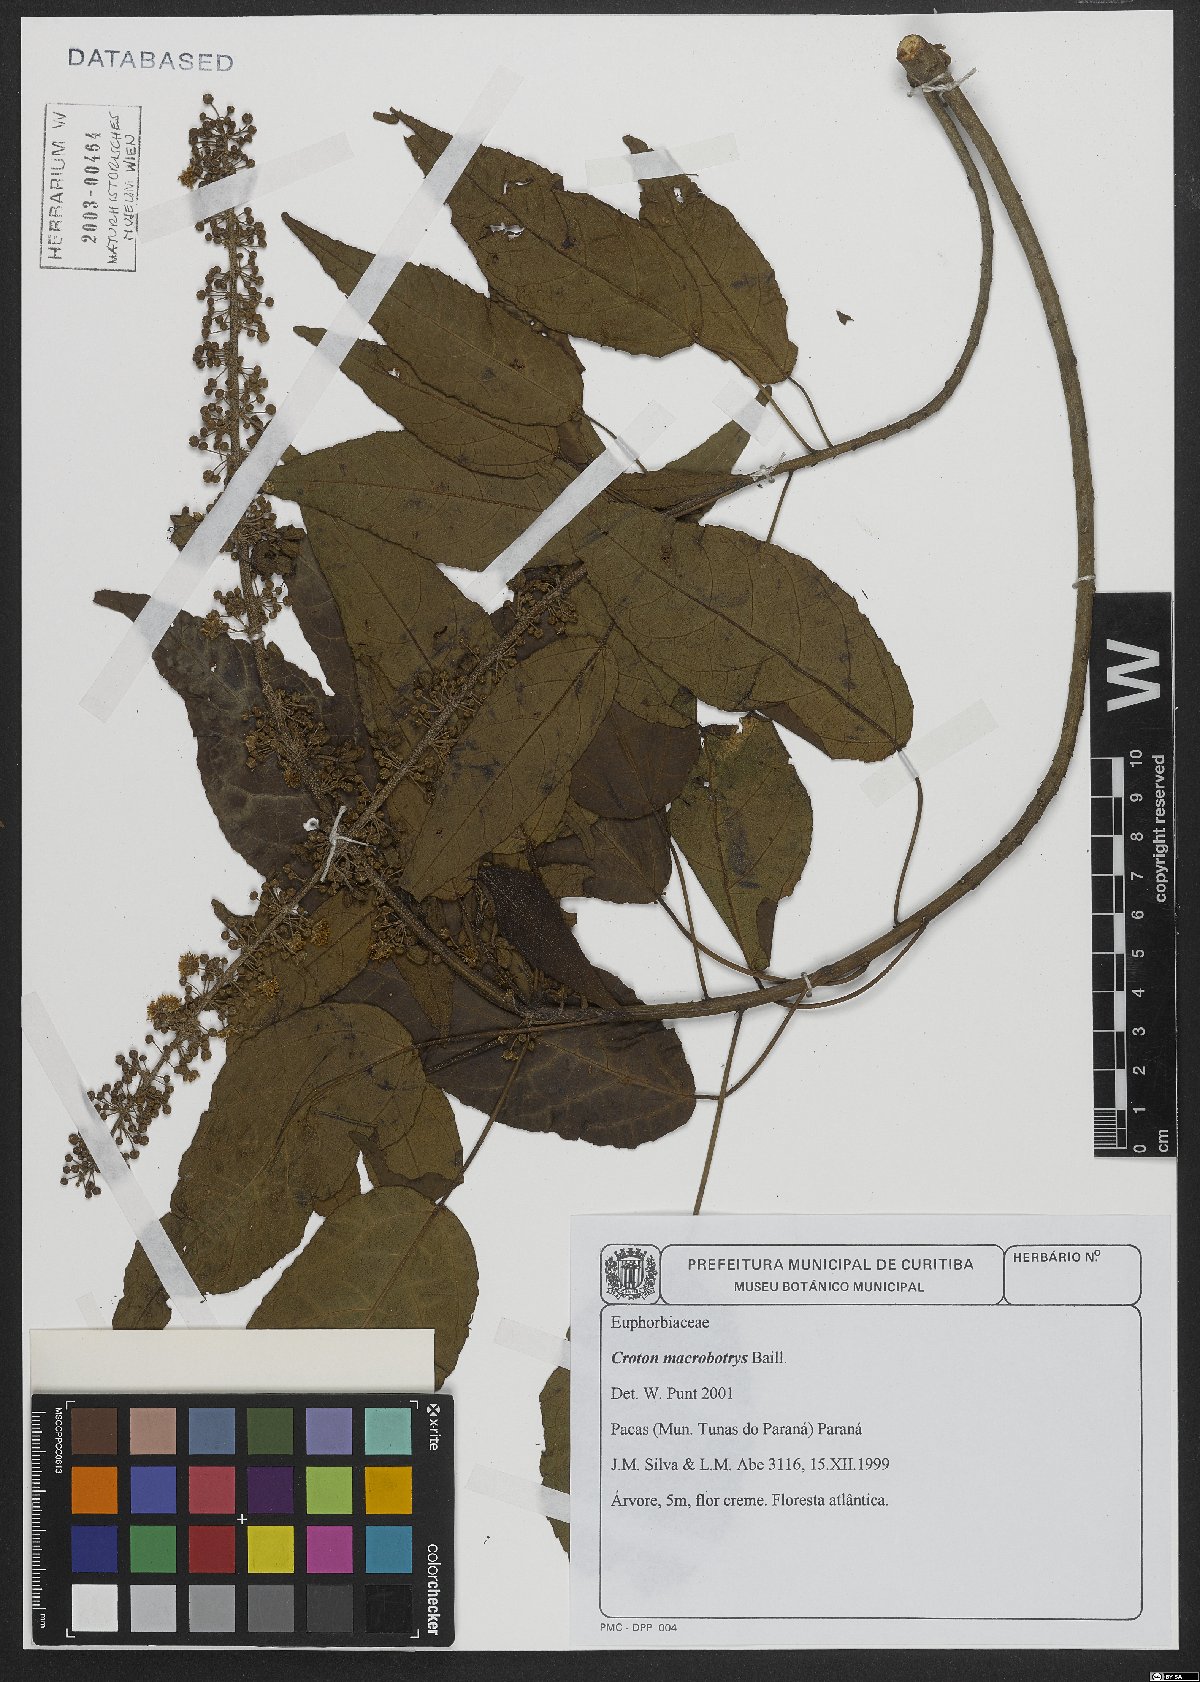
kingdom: Plantae
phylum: Tracheophyta
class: Magnoliopsida
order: Malpighiales
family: Euphorbiaceae
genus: Croton
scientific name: Croton macrobothrys
